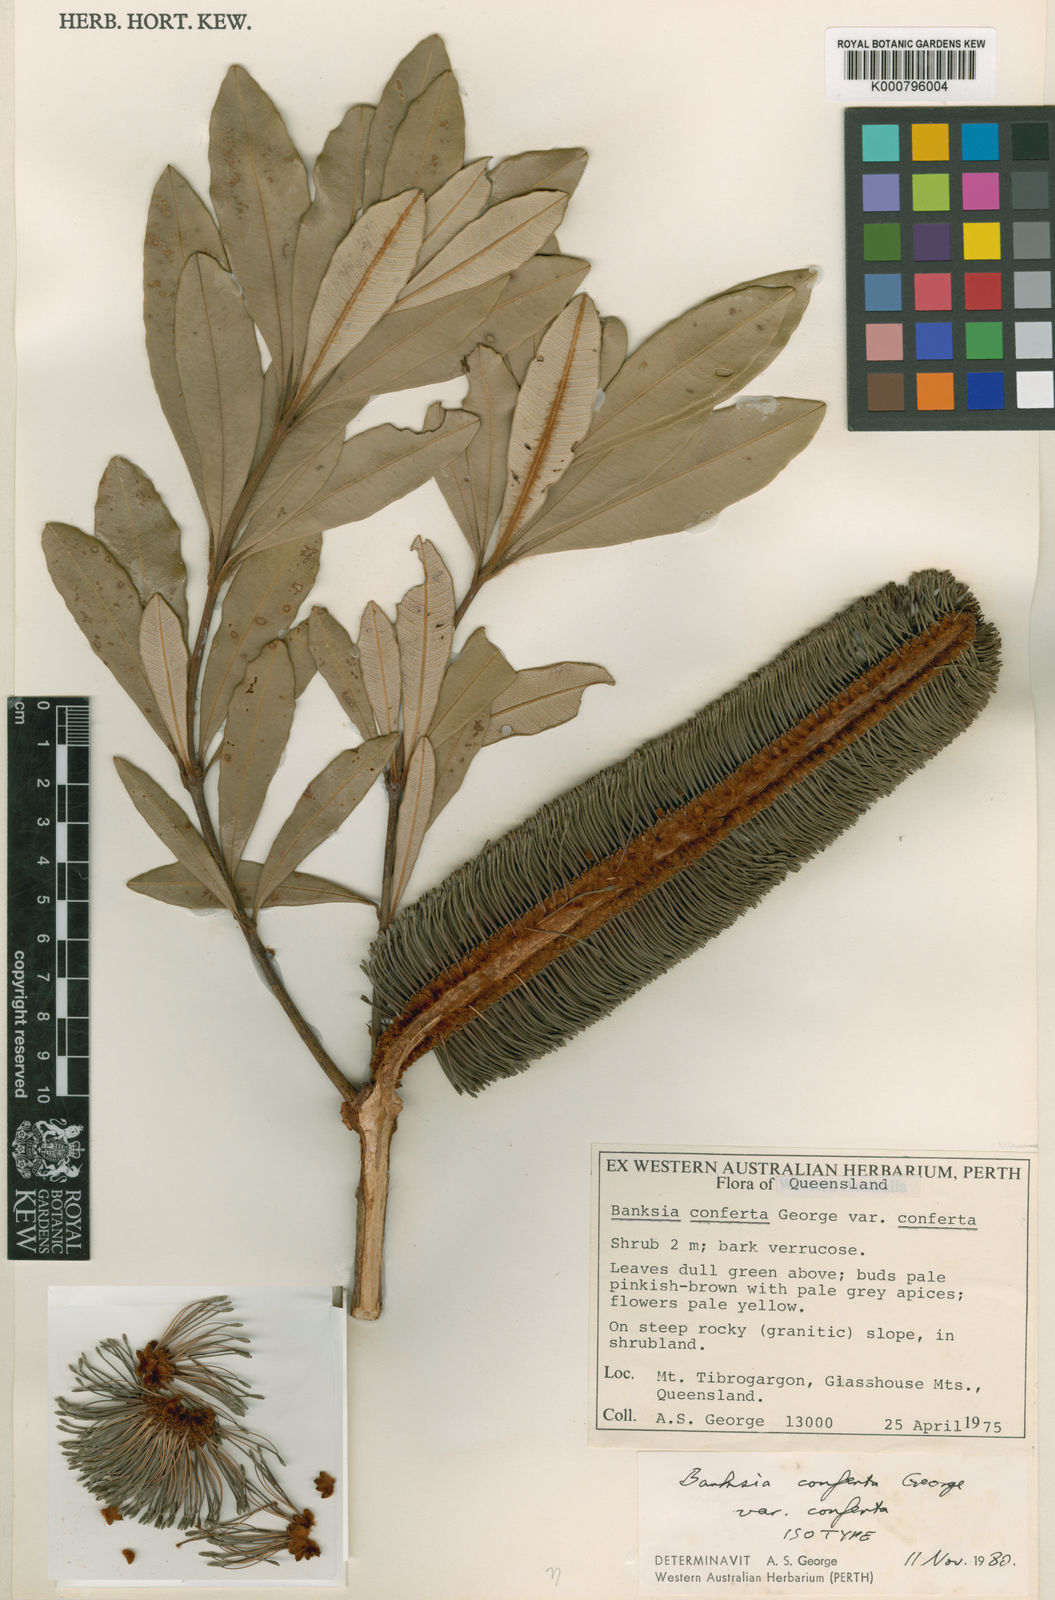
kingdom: Plantae
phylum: Tracheophyta
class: Magnoliopsida
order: Proteales
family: Proteaceae
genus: Banksia
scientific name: Banksia conferta
